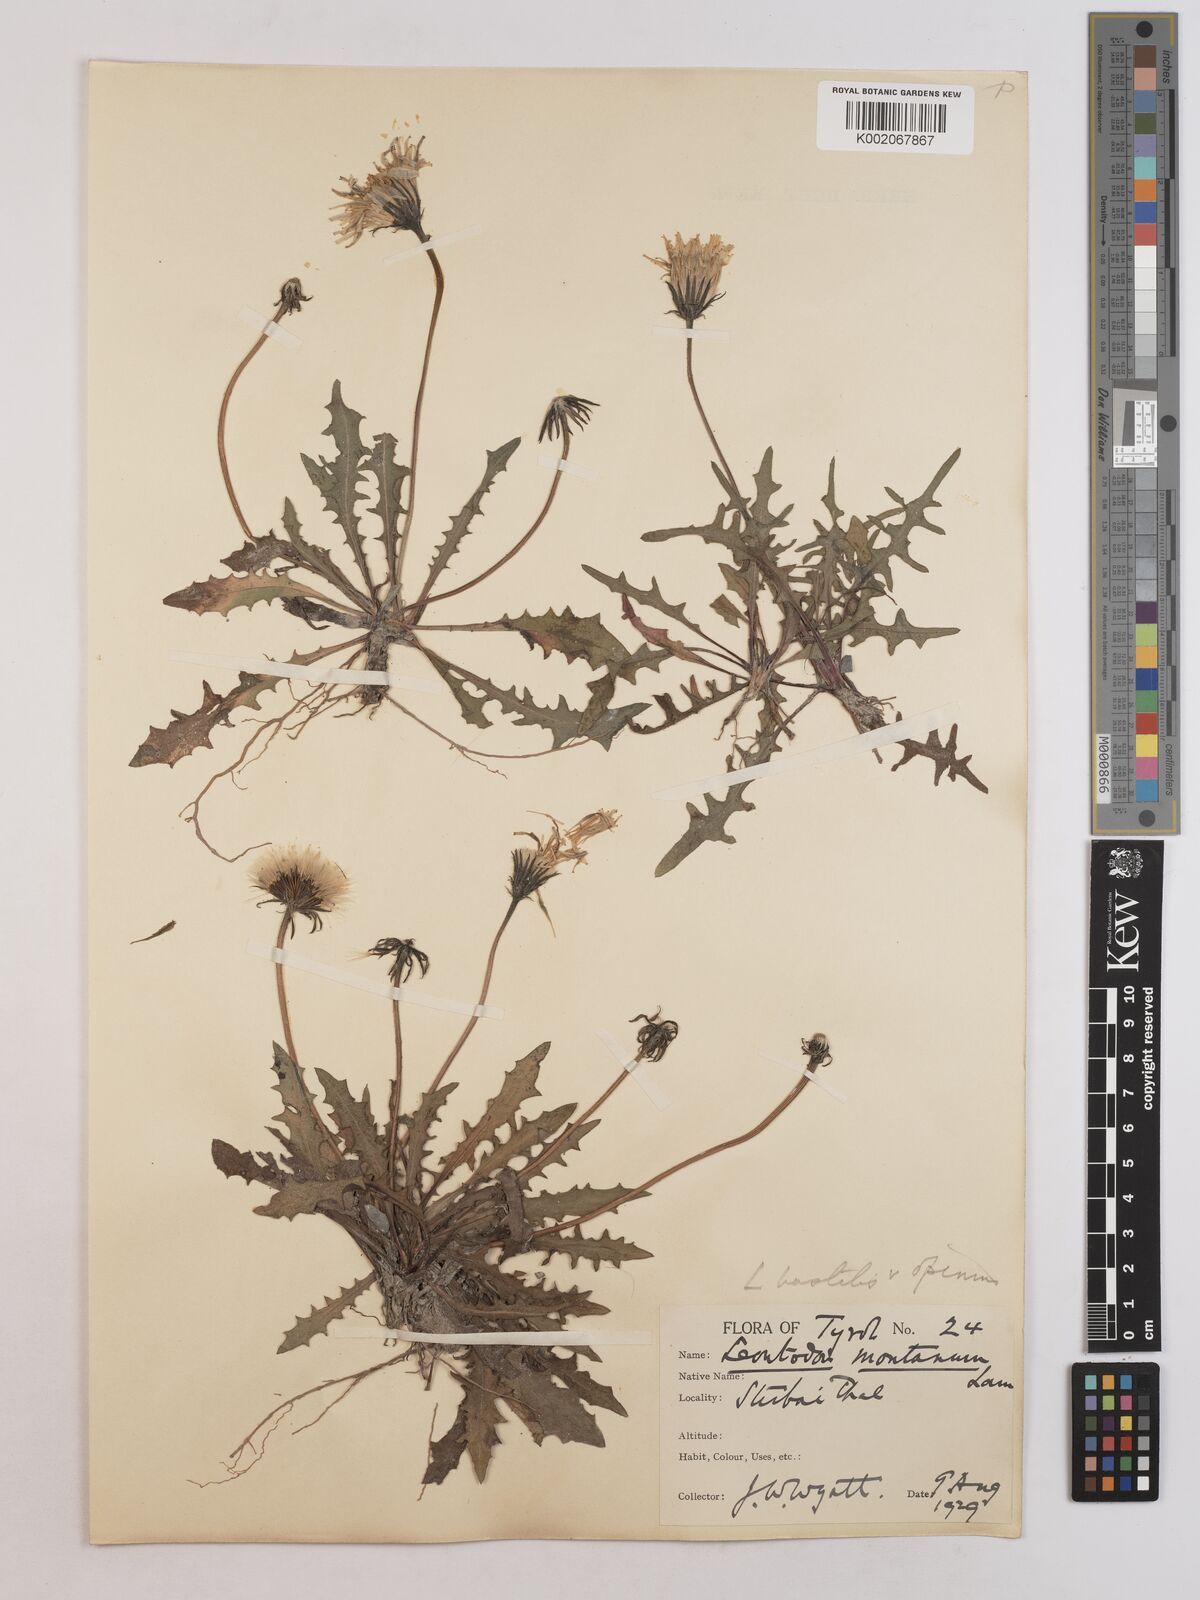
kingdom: Plantae
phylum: Tracheophyta
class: Magnoliopsida
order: Asterales
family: Asteraceae
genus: Leontodon
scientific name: Leontodon hispidus
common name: Rough hawkbit
